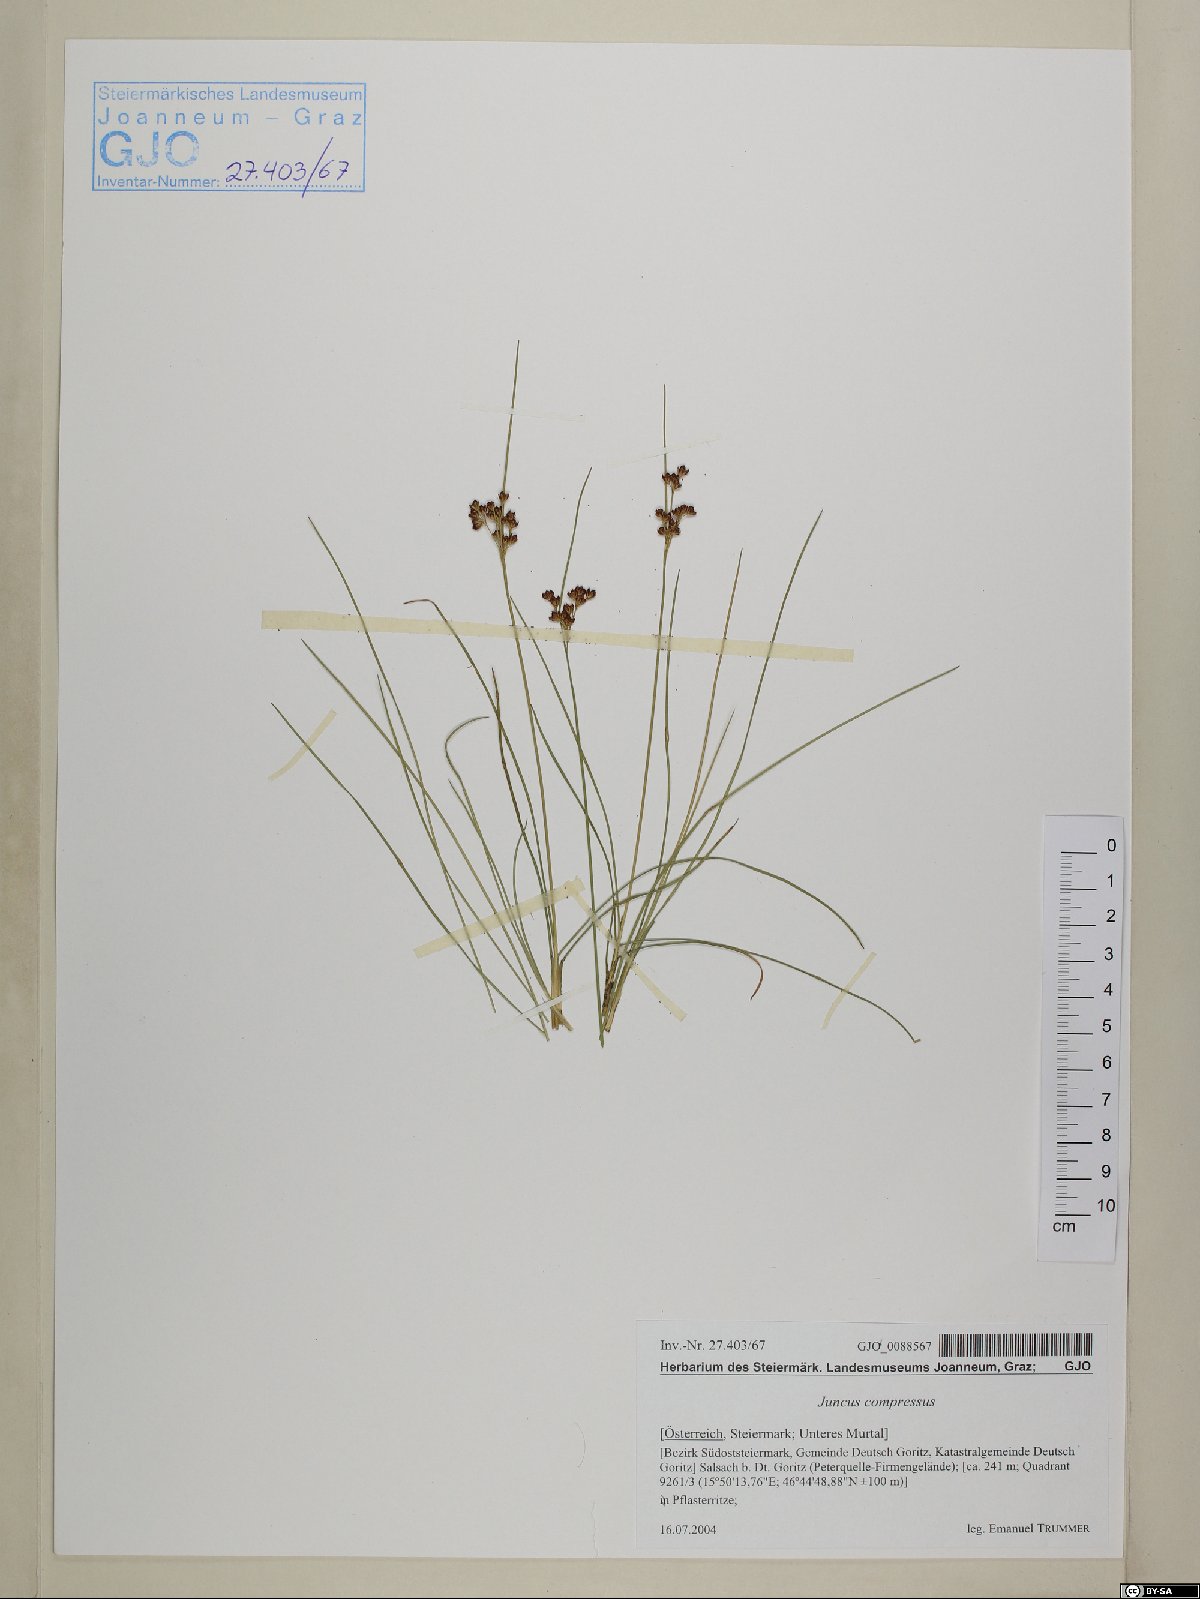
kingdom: Plantae
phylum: Tracheophyta
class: Liliopsida
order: Poales
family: Juncaceae
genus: Juncus
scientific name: Juncus compressus
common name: Round-fruited rush
